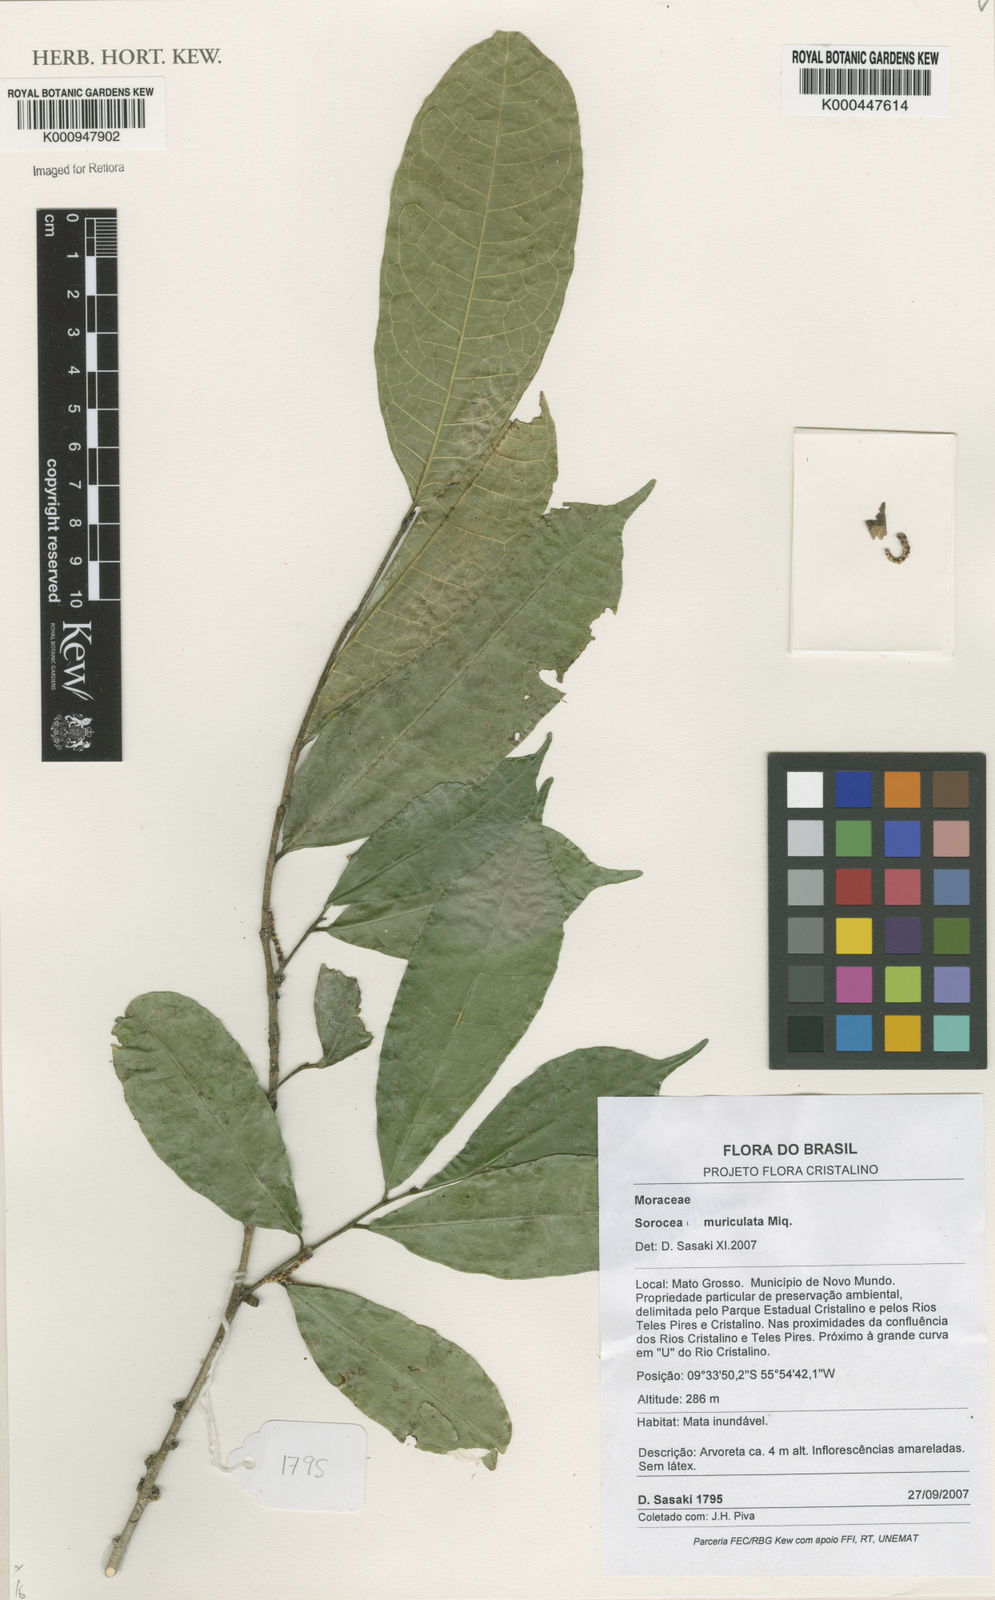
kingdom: Plantae
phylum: Tracheophyta
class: Magnoliopsida
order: Rosales
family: Moraceae
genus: Sorocea
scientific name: Sorocea muriculata
